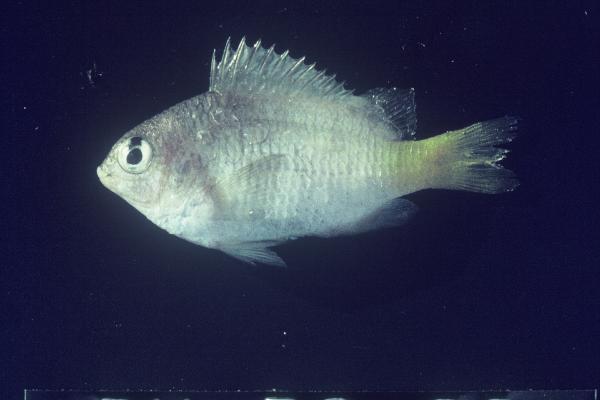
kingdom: Animalia
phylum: Chordata
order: Perciformes
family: Pomacentridae
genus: Abudefduf
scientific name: Abudefduf
